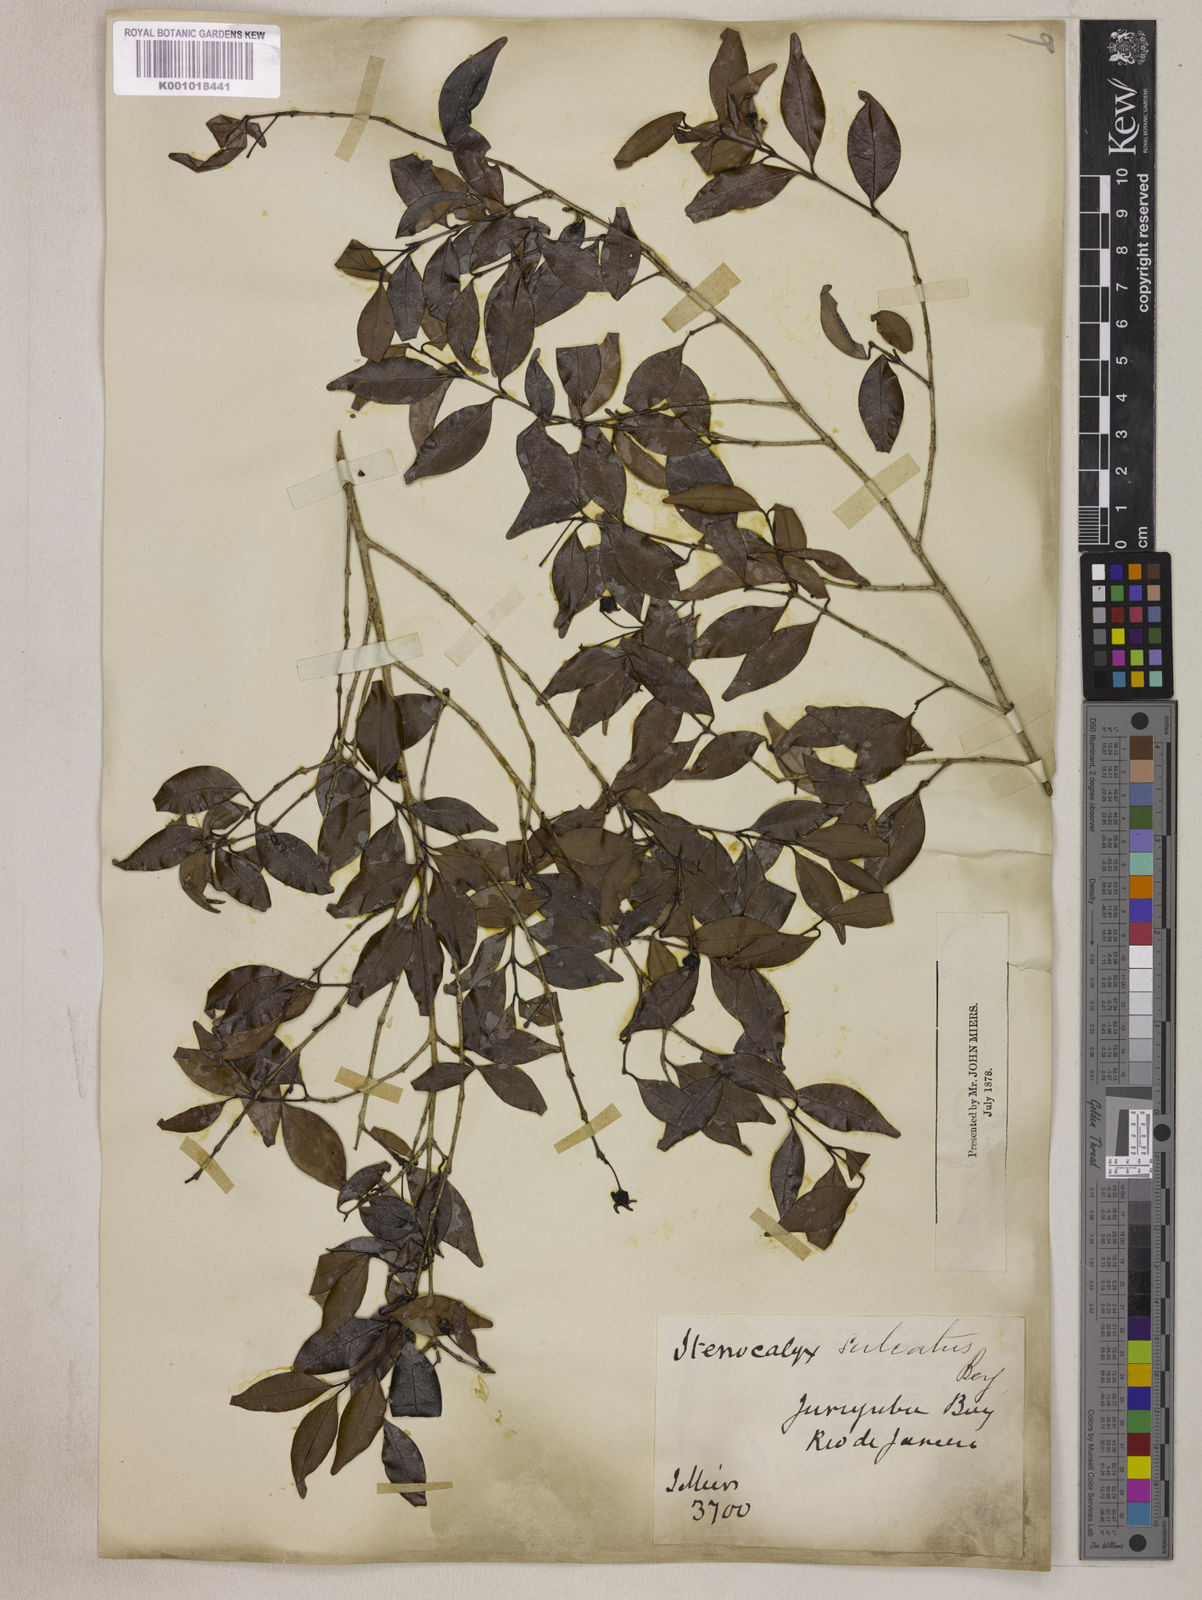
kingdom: Plantae
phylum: Tracheophyta
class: Magnoliopsida
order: Myrtales
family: Myrtaceae
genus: Eugenia
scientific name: Eugenia sulcata
